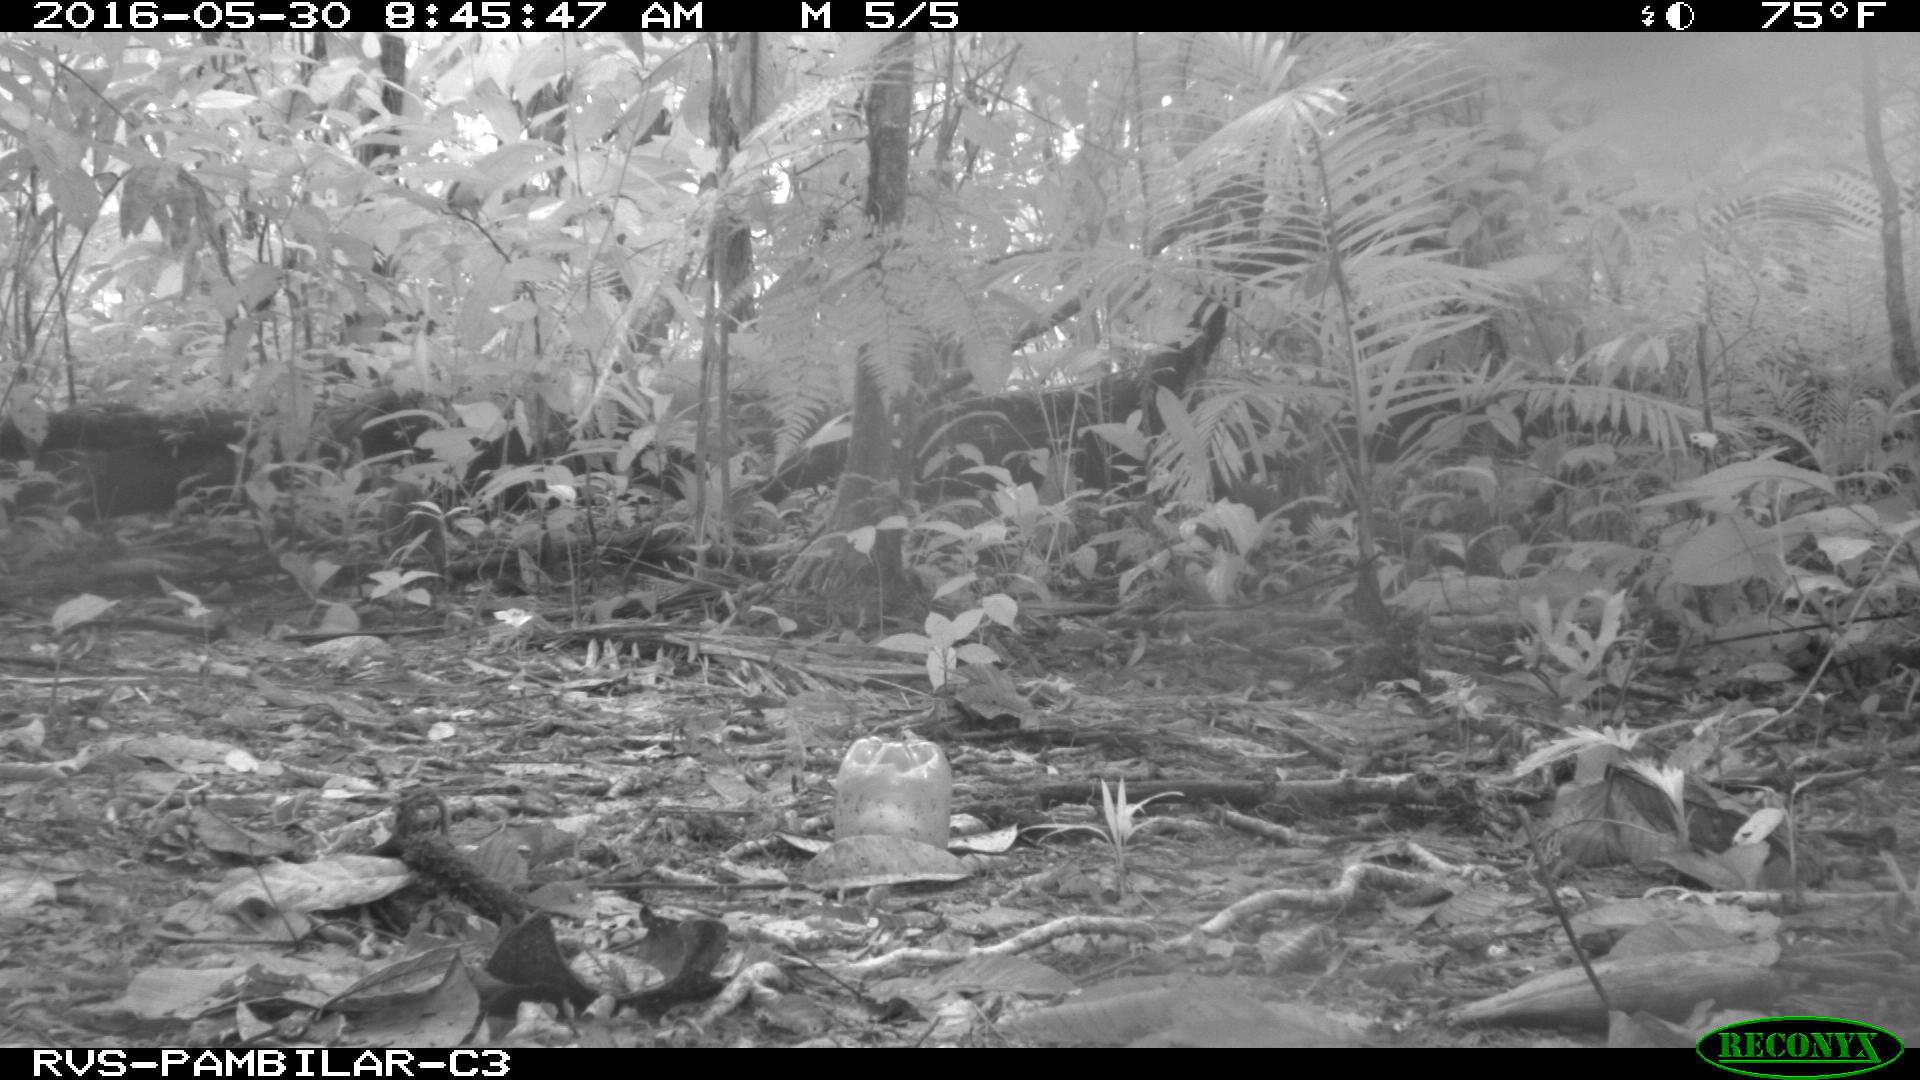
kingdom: Animalia
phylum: Chordata
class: Mammalia
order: Rodentia
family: Dasyproctidae
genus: Dasyprocta
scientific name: Dasyprocta punctata
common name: Central american agouti
